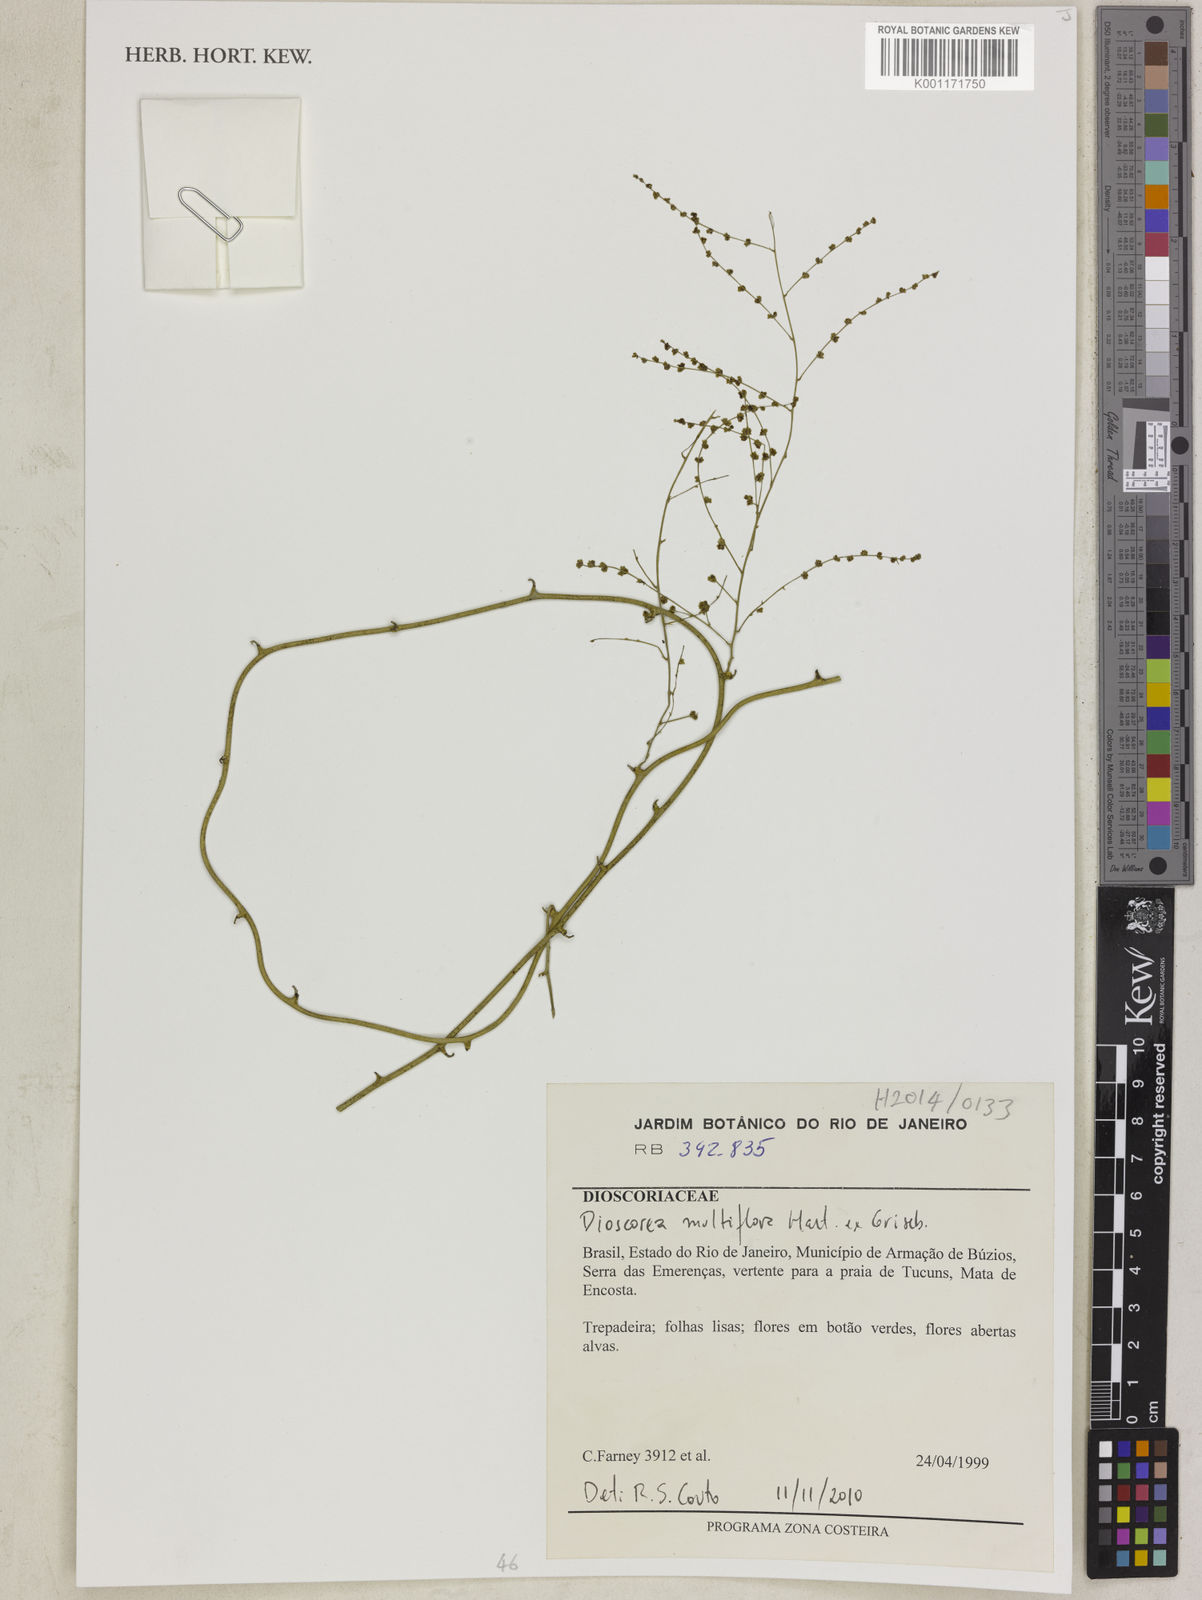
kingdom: Plantae
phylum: Tracheophyta
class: Liliopsida
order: Dioscoreales
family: Dioscoreaceae
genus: Dioscorea
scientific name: Dioscorea multiflora
